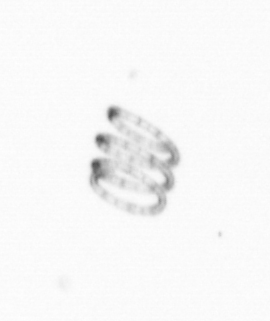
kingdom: Chromista
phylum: Ochrophyta
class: Bacillariophyceae
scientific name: Bacillariophyceae
